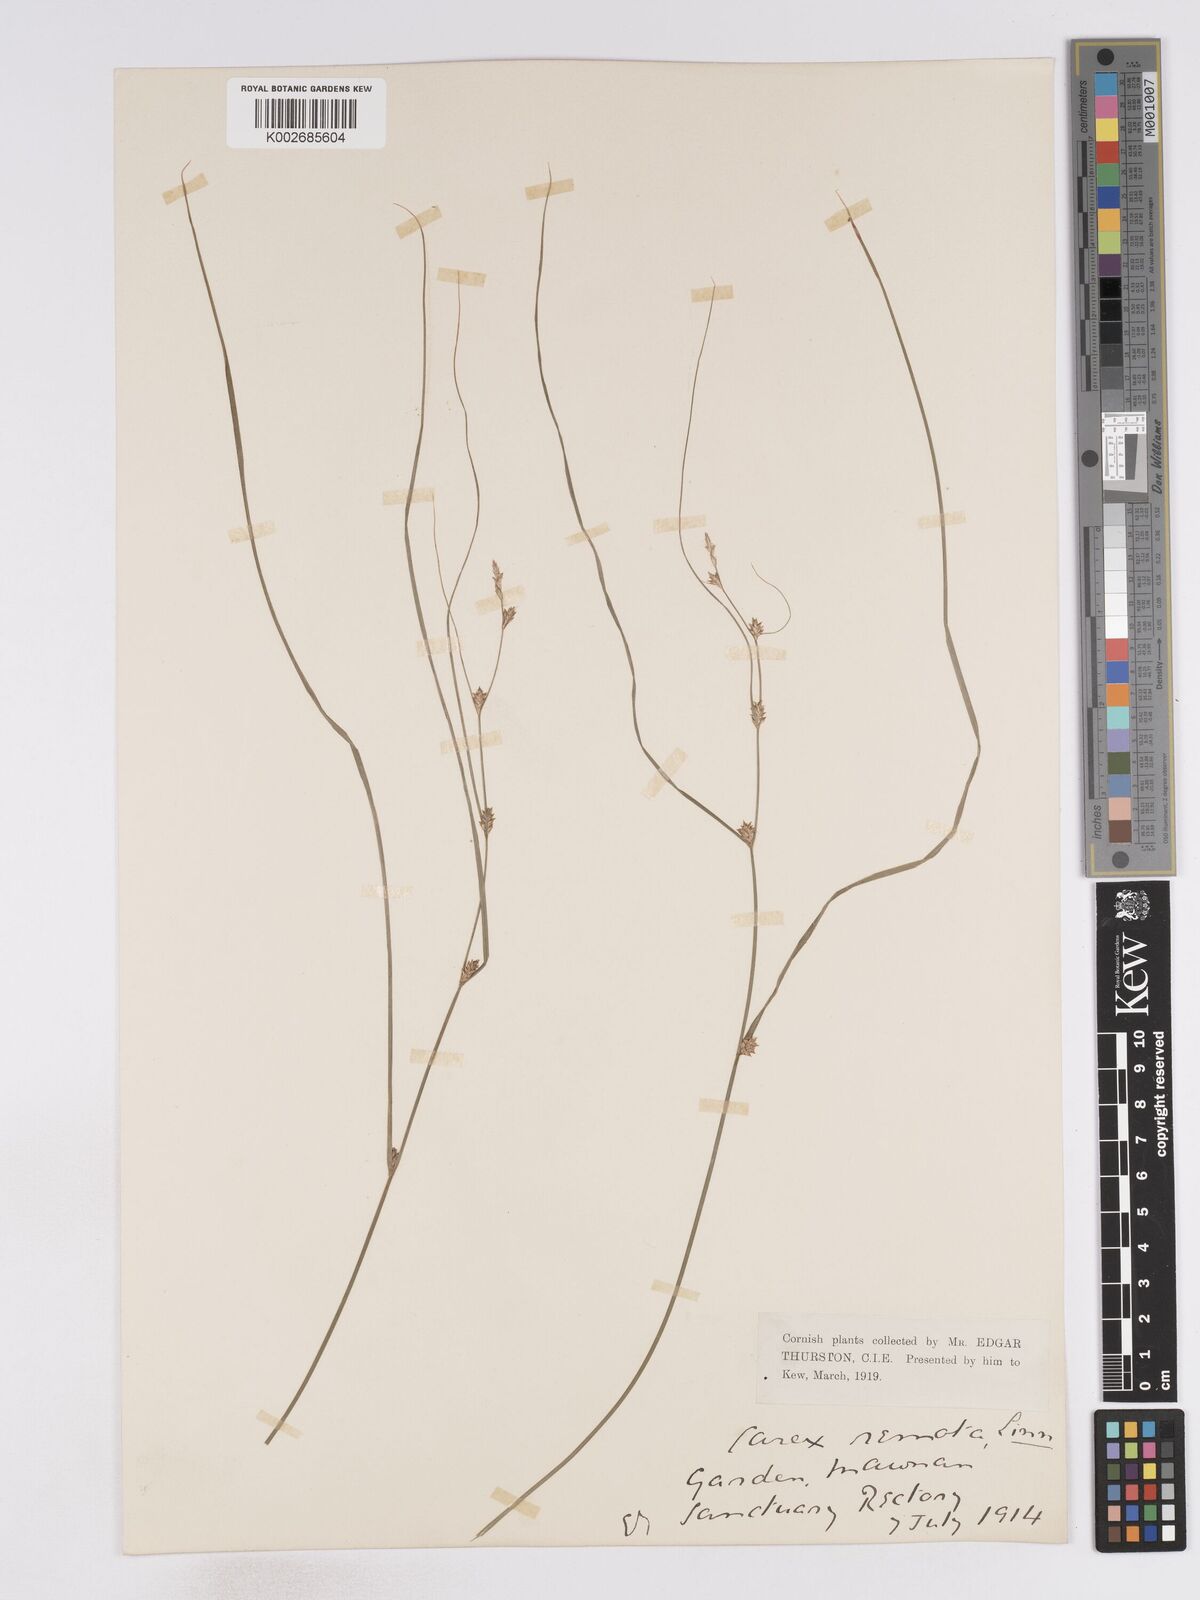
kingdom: Plantae
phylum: Tracheophyta
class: Liliopsida
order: Poales
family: Cyperaceae
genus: Carex
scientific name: Carex remota
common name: Remote sedge
